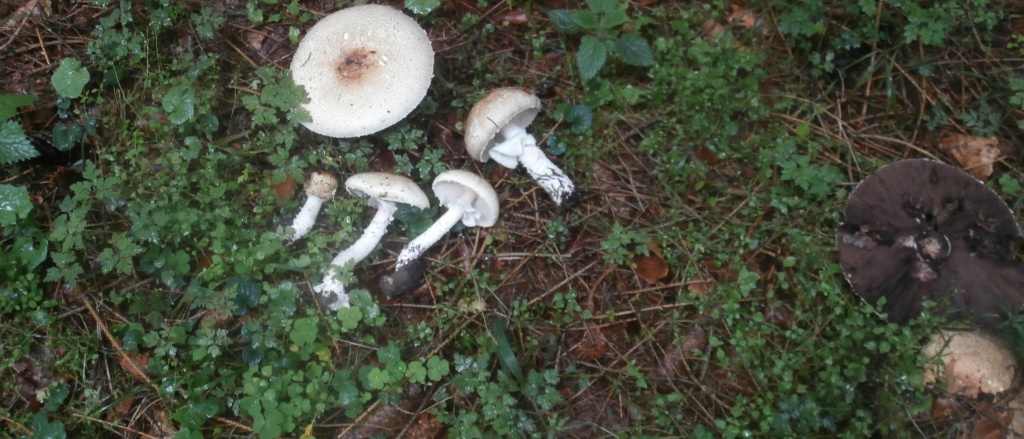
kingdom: Fungi
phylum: Basidiomycota
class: Agaricomycetes
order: Agaricales
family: Agaricaceae
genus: Agaricus
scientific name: Agaricus augustus
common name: prægtig champignon
